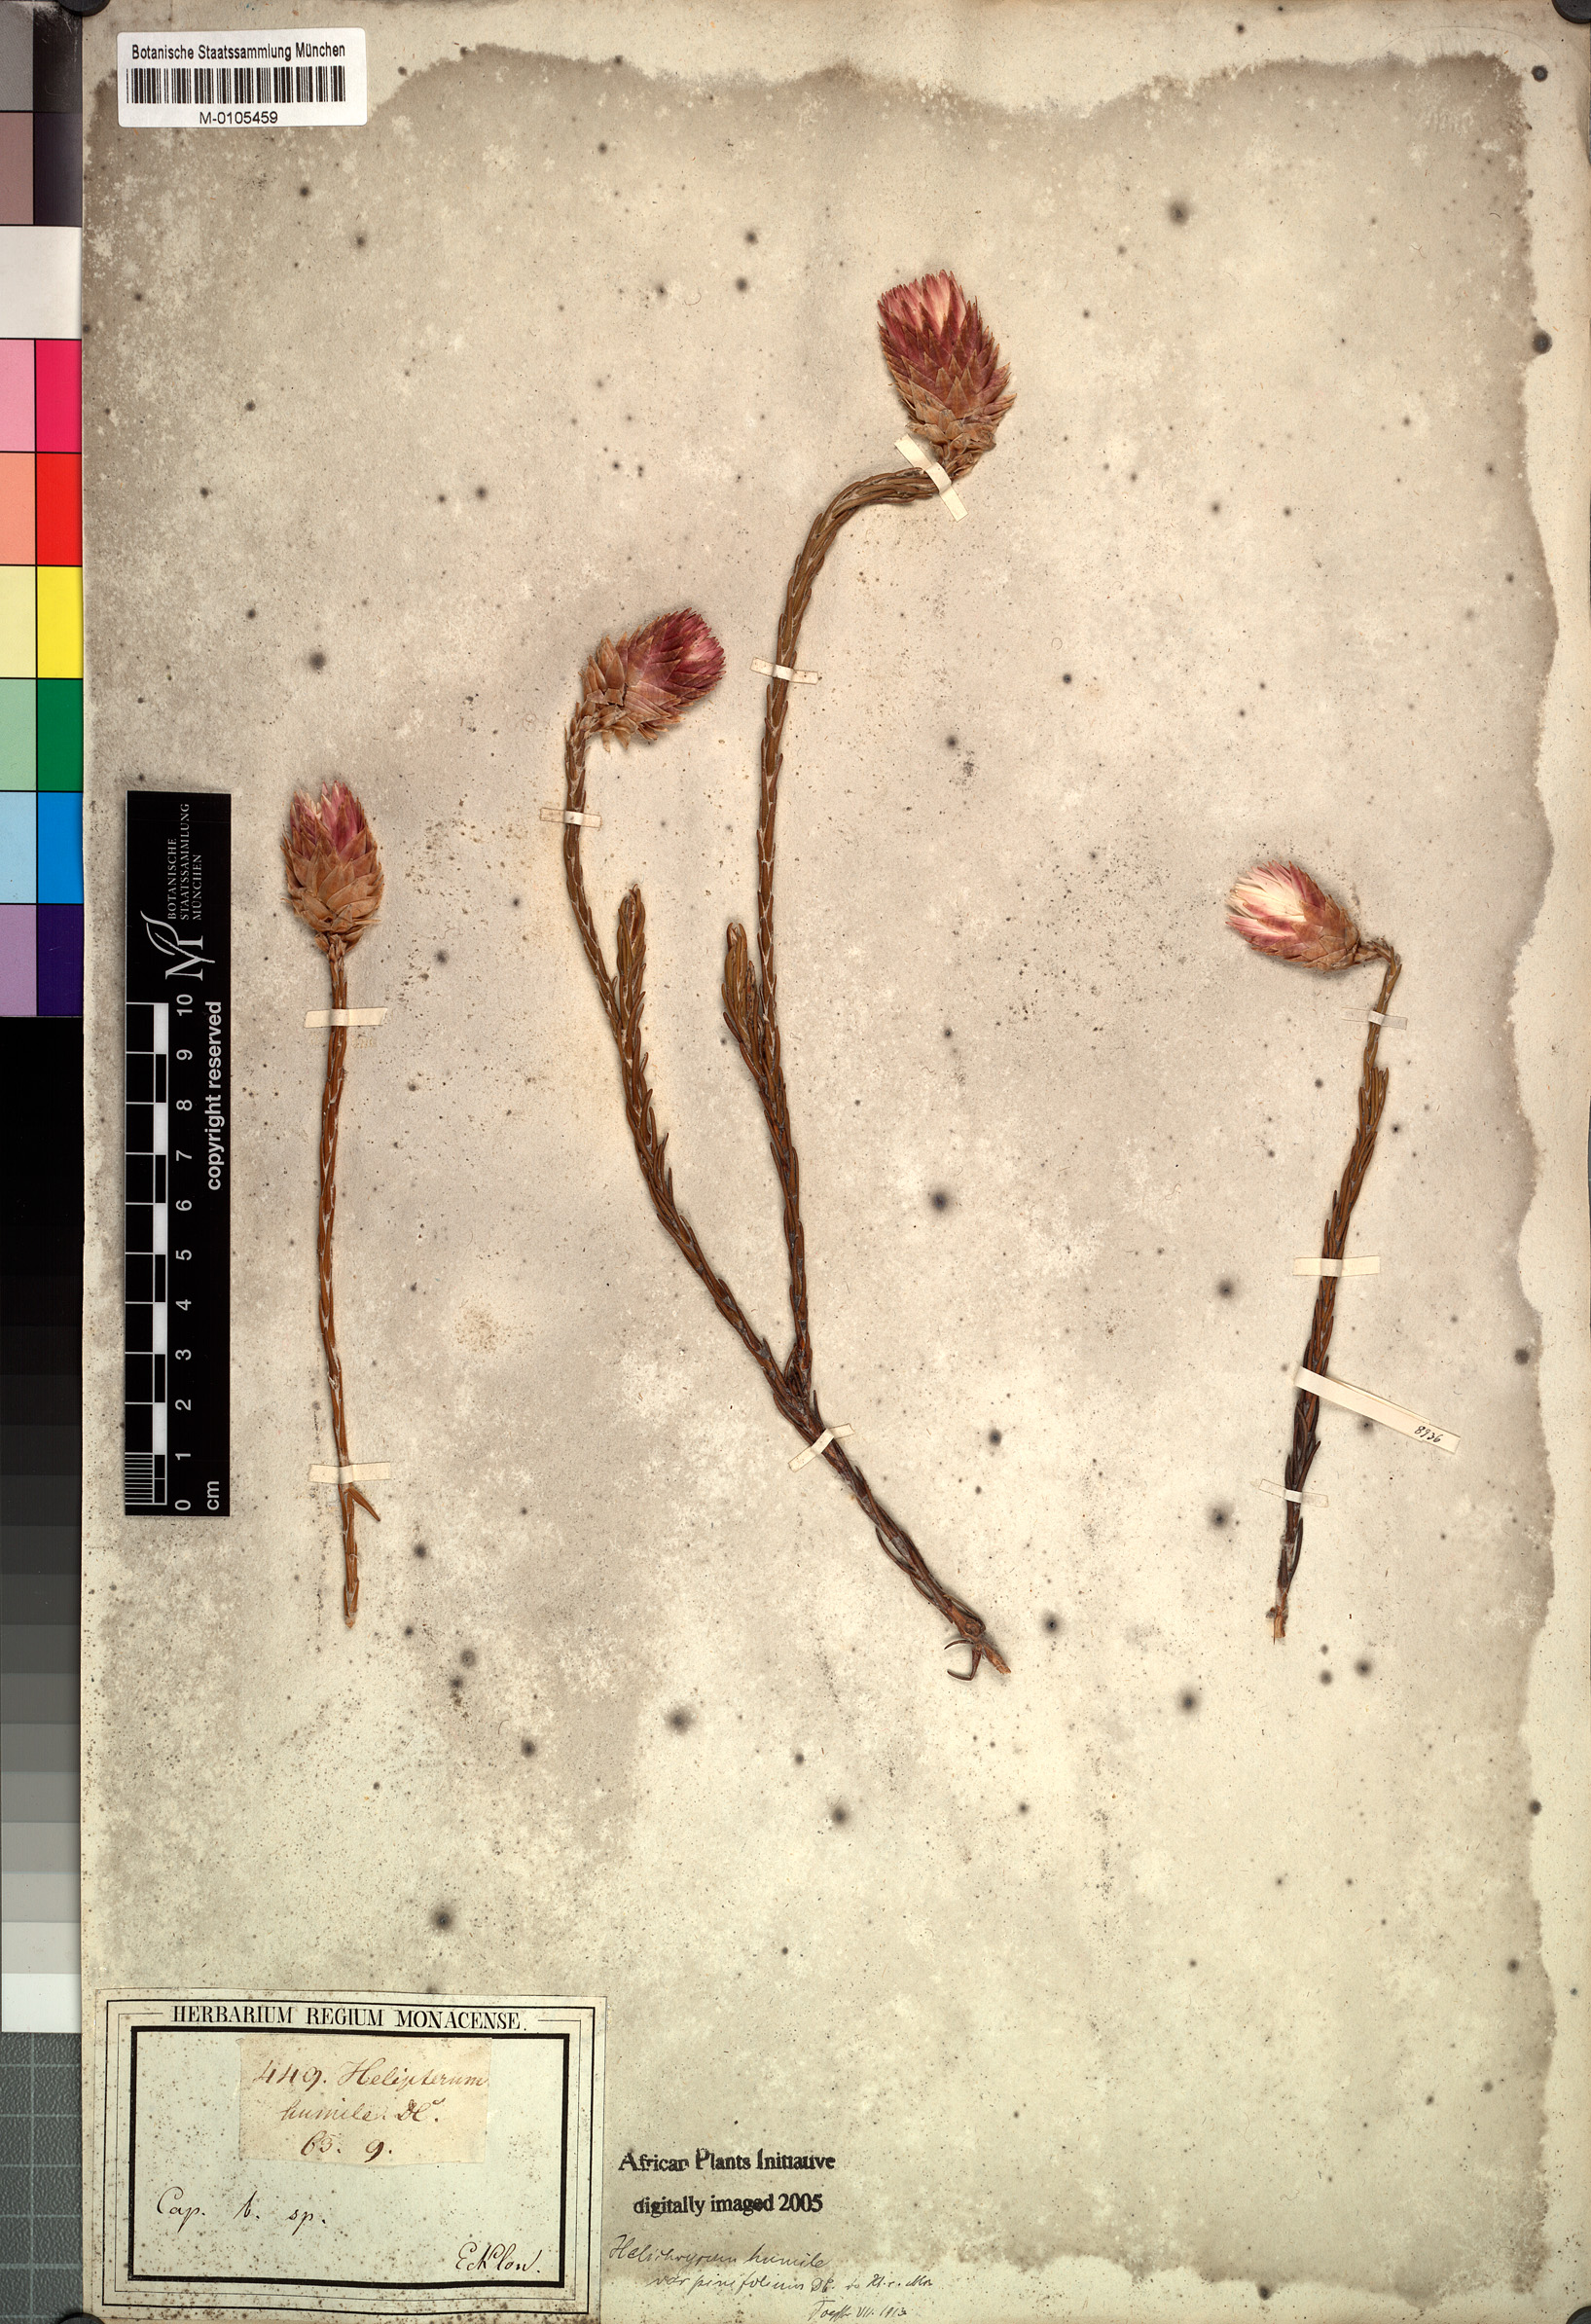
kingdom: Plantae
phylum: Tracheophyta
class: Magnoliopsida
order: Asterales
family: Asteraceae
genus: Edmondia
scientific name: Edmondia pinifolia
